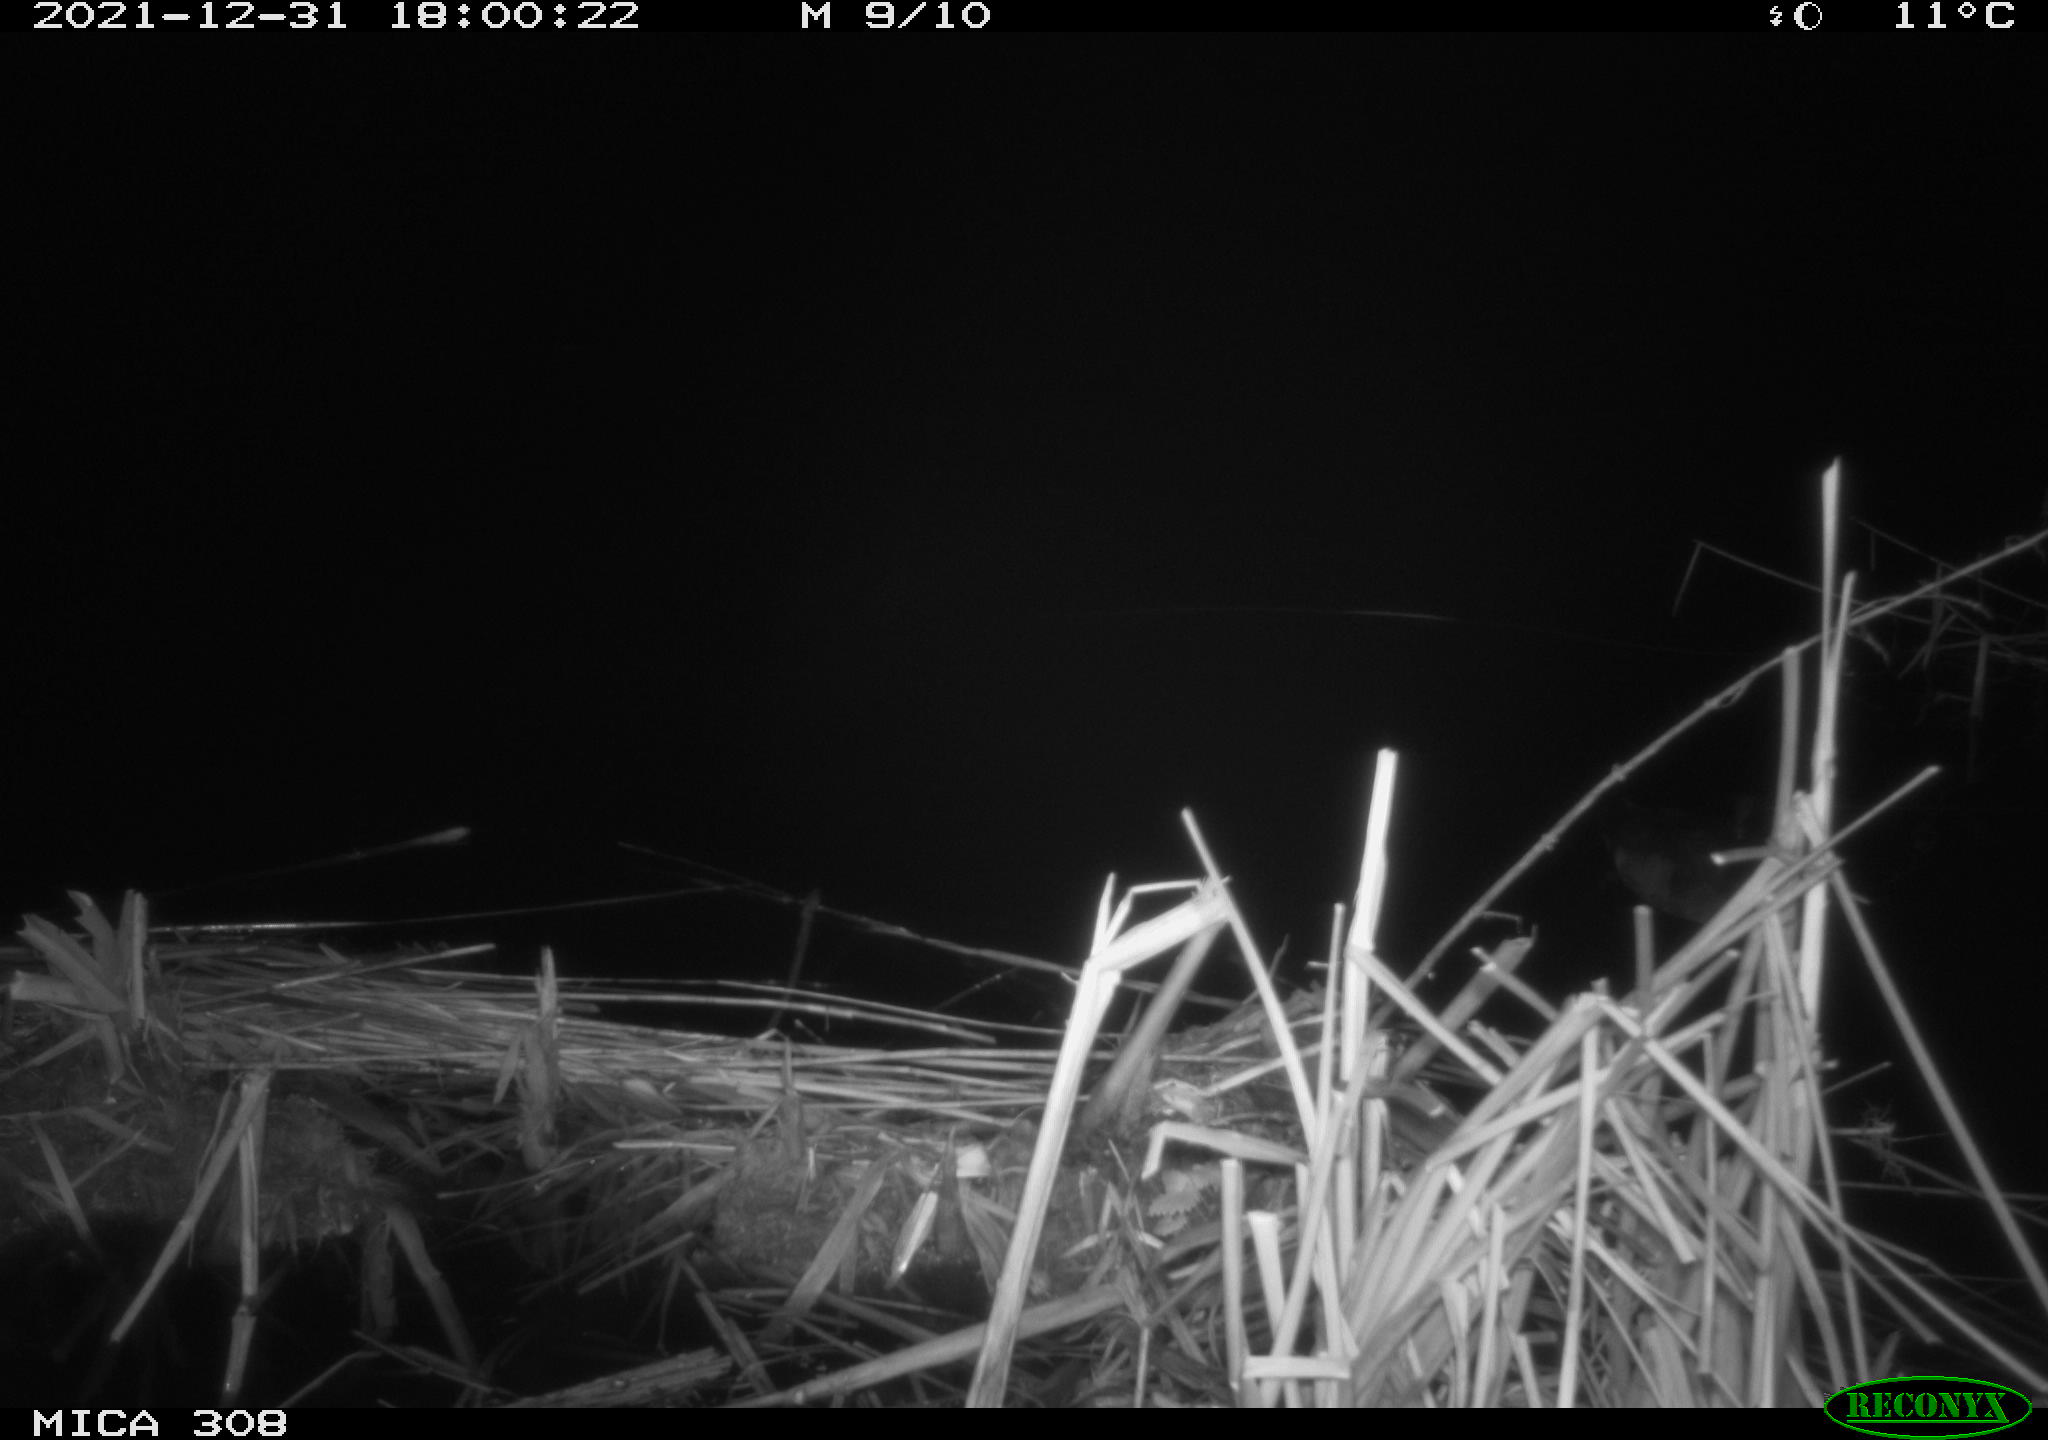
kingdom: Animalia
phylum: Chordata
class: Aves
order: Gruiformes
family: Rallidae
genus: Fulica
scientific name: Fulica atra
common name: Eurasian coot
